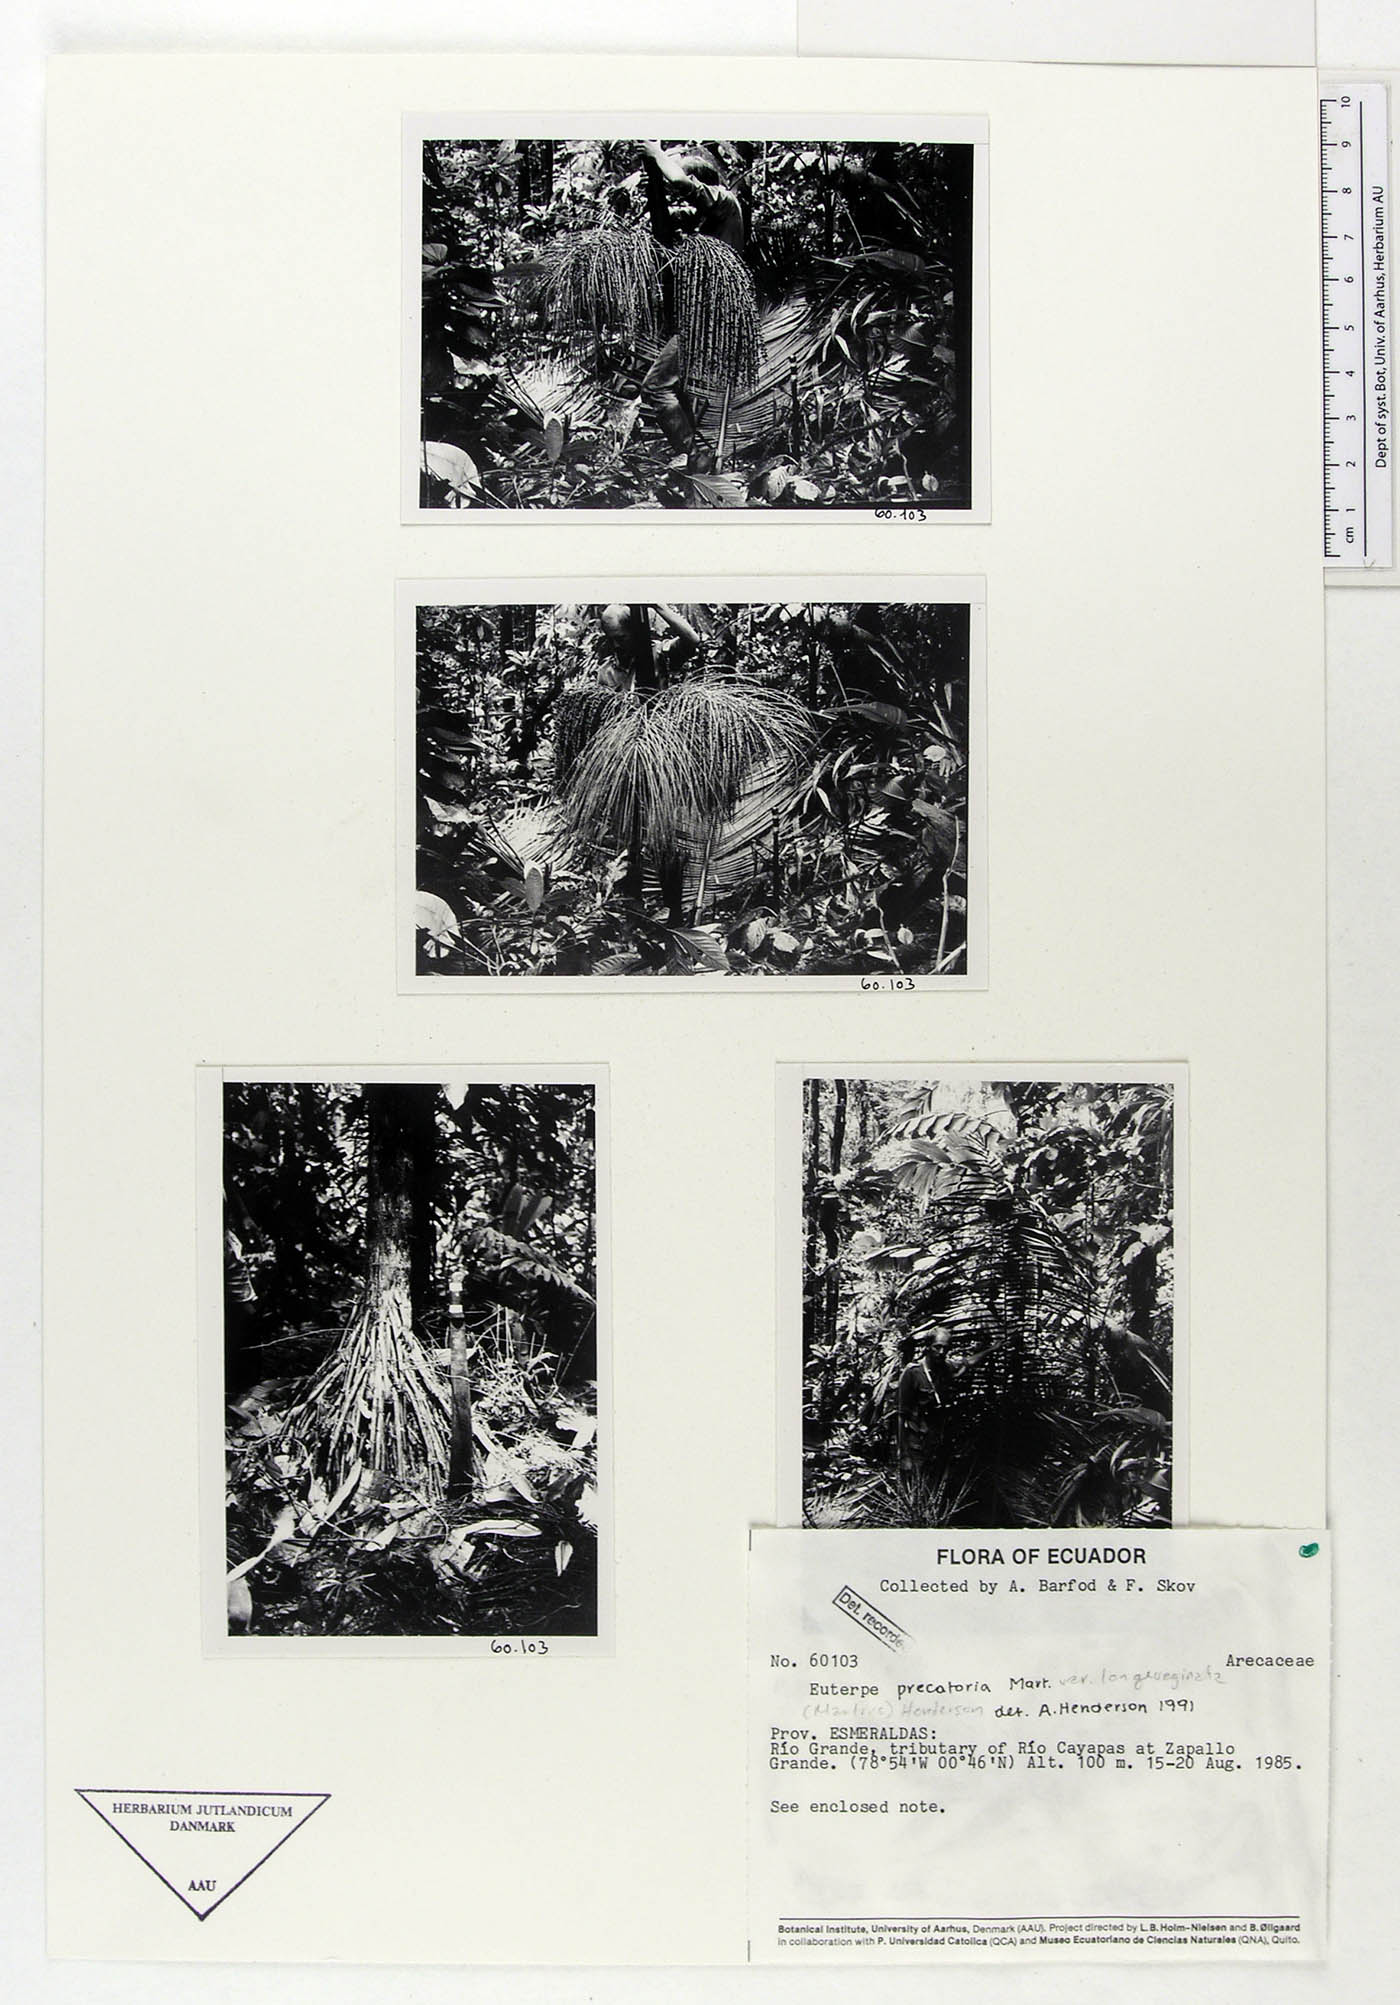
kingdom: Plantae
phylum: Tracheophyta
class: Liliopsida
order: Arecales
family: Arecaceae
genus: Euterpe
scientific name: Euterpe precatoria
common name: Mountain-cabbage
